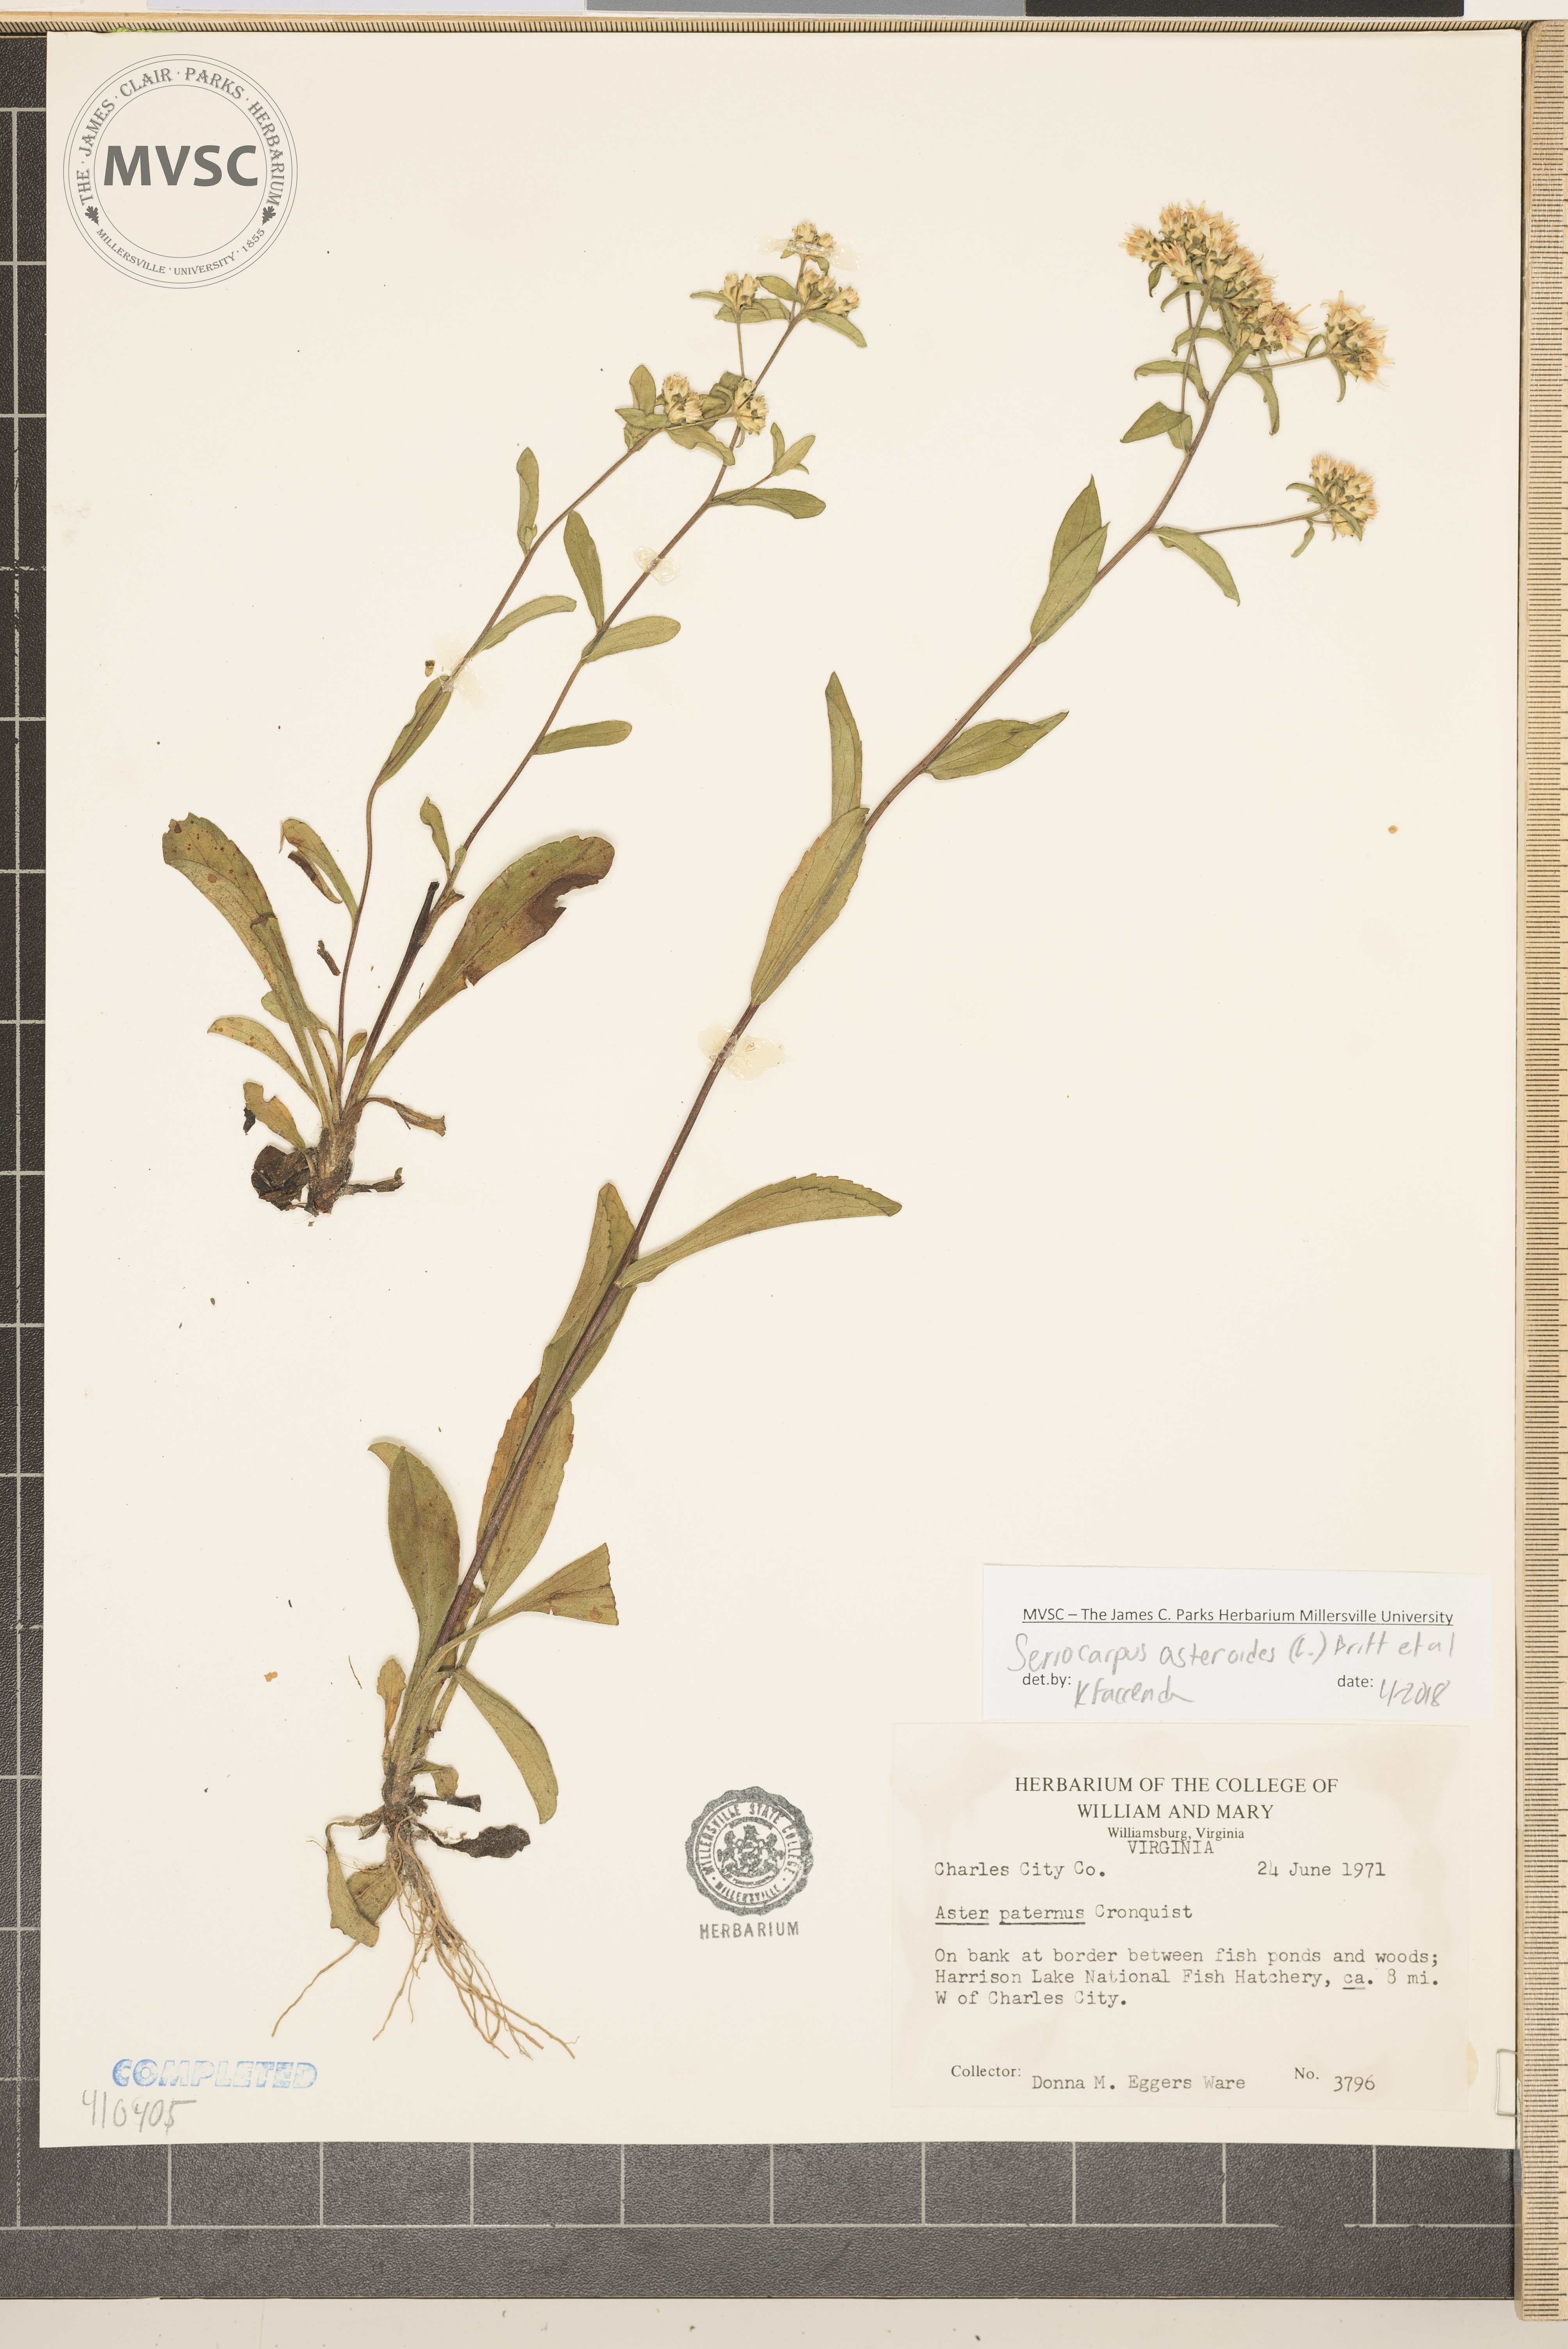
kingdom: Plantae
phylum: Tracheophyta
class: Magnoliopsida
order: Asterales
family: Asteraceae
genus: Sericocarpus
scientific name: Sericocarpus asteroides
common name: Toothed white-top aster
